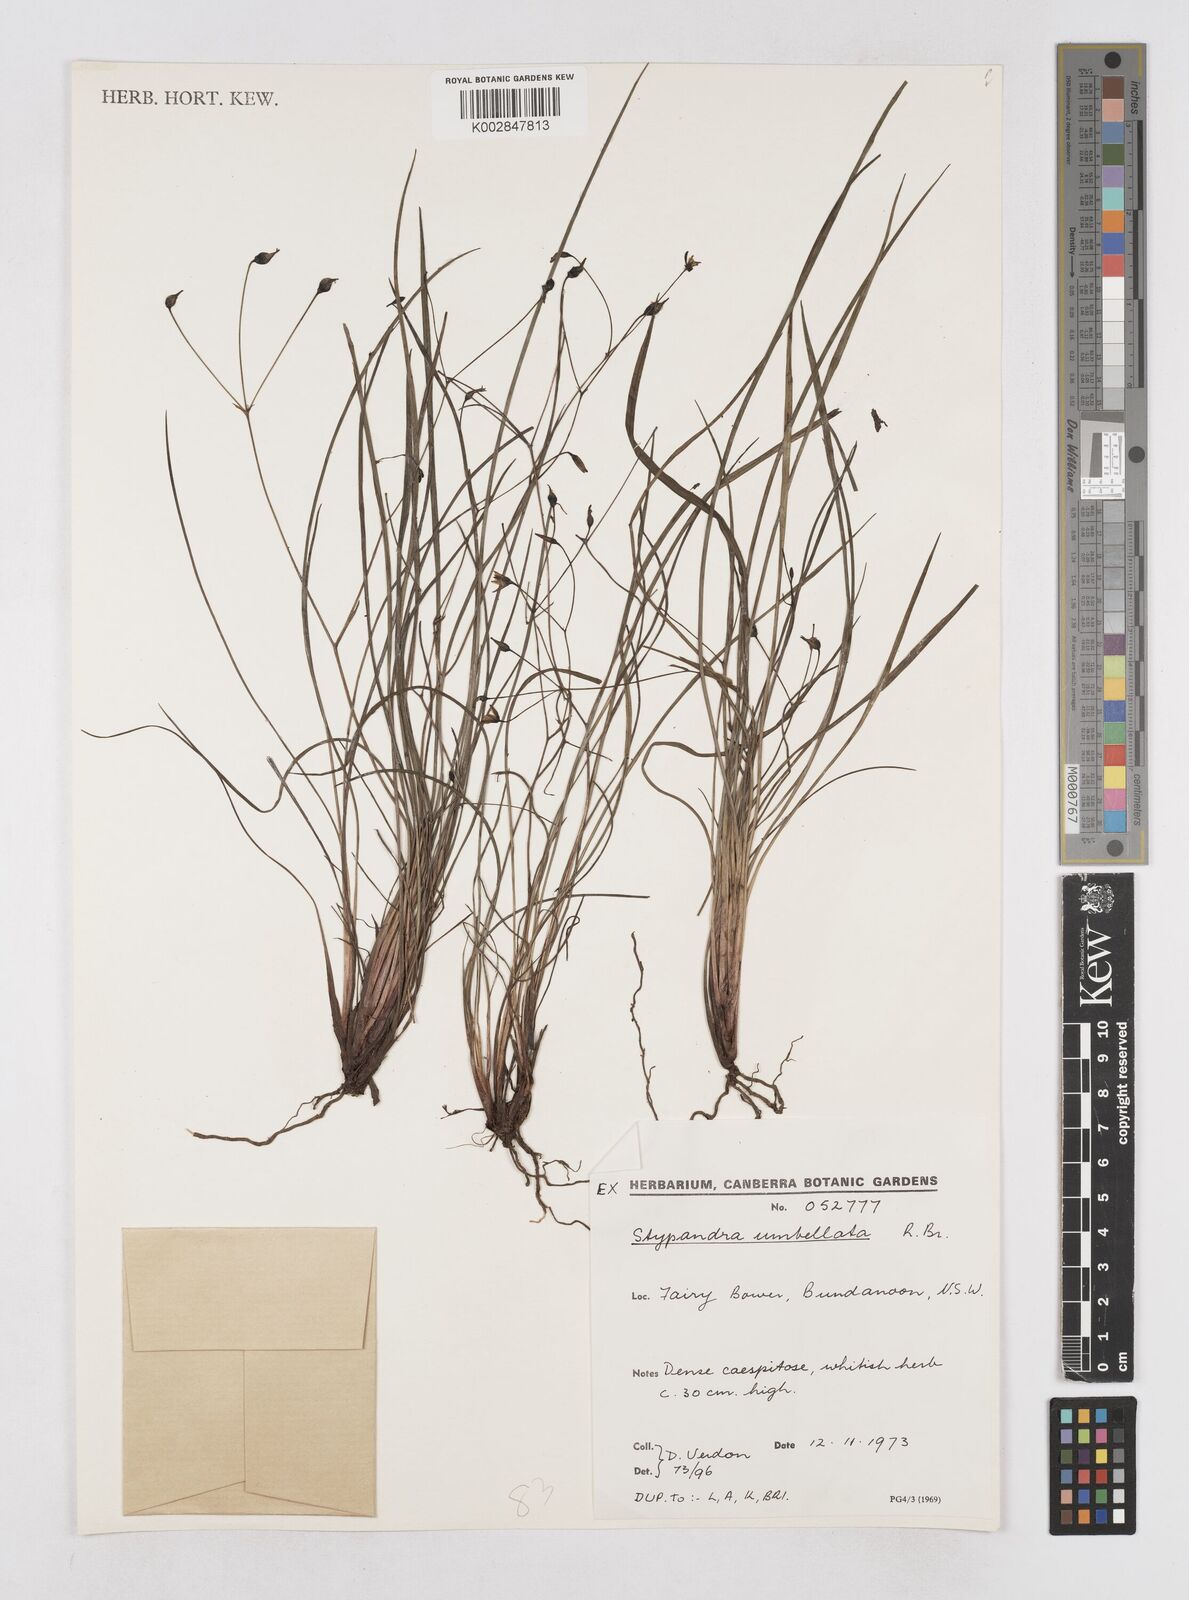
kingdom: Plantae
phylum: Tracheophyta
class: Liliopsida
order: Asparagales
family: Asphodelaceae
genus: Thelionema
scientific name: Thelionema umbellatum
